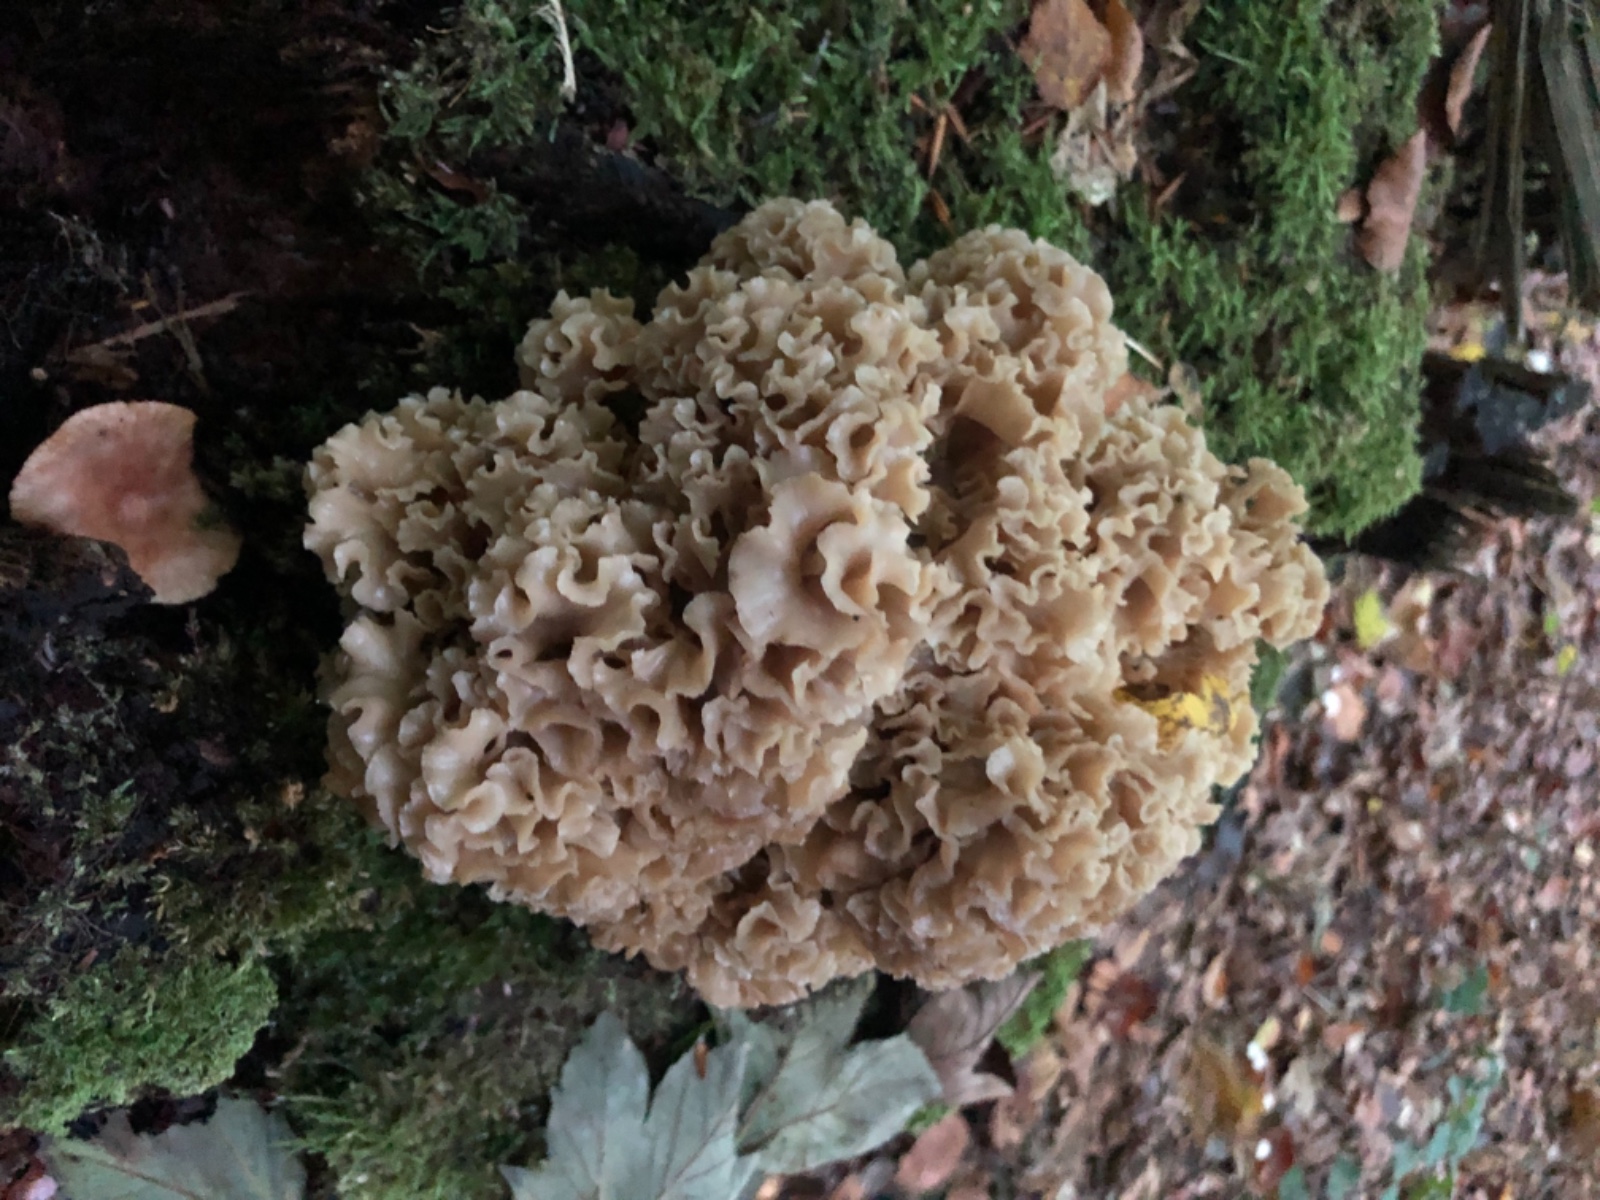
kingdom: Fungi
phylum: Basidiomycota
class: Agaricomycetes
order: Polyporales
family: Sparassidaceae
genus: Sparassis
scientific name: Sparassis crispa
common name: kruset blomkålssvamp
